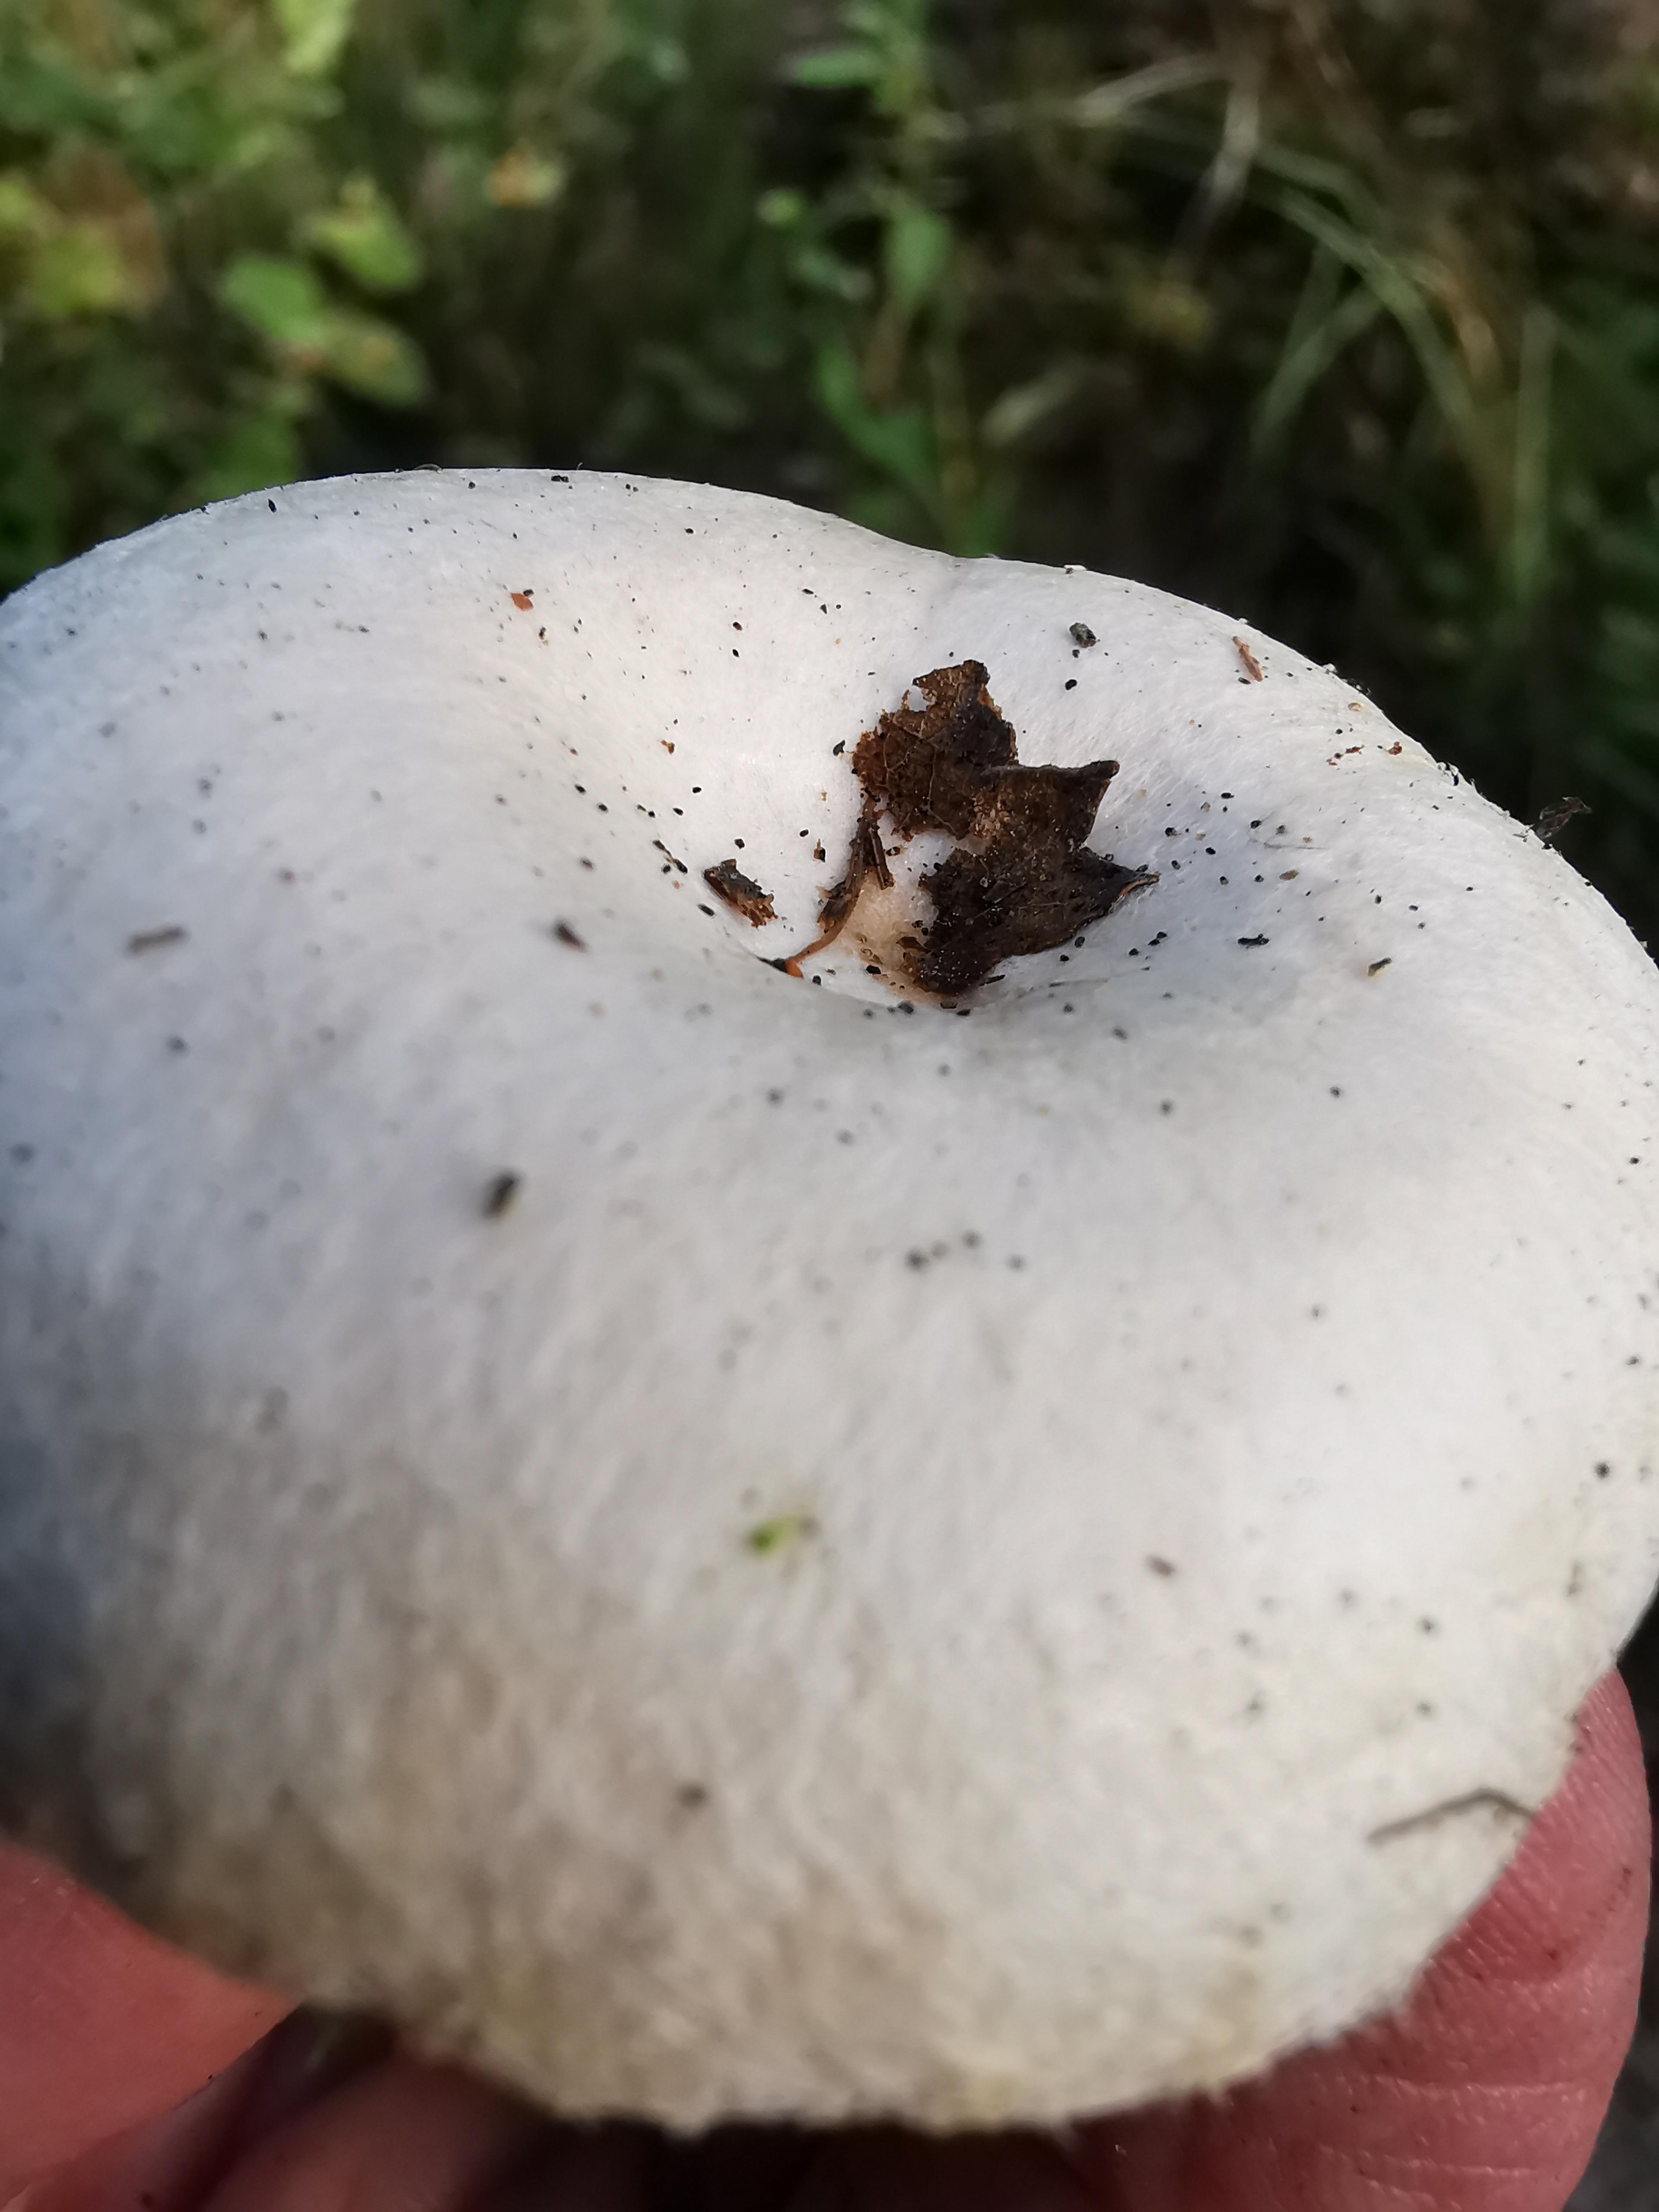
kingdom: Fungi
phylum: Basidiomycota
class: Agaricomycetes
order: Russulales
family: Russulaceae
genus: Lactarius
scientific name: Lactarius pubescens
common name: dunet mælkehat
